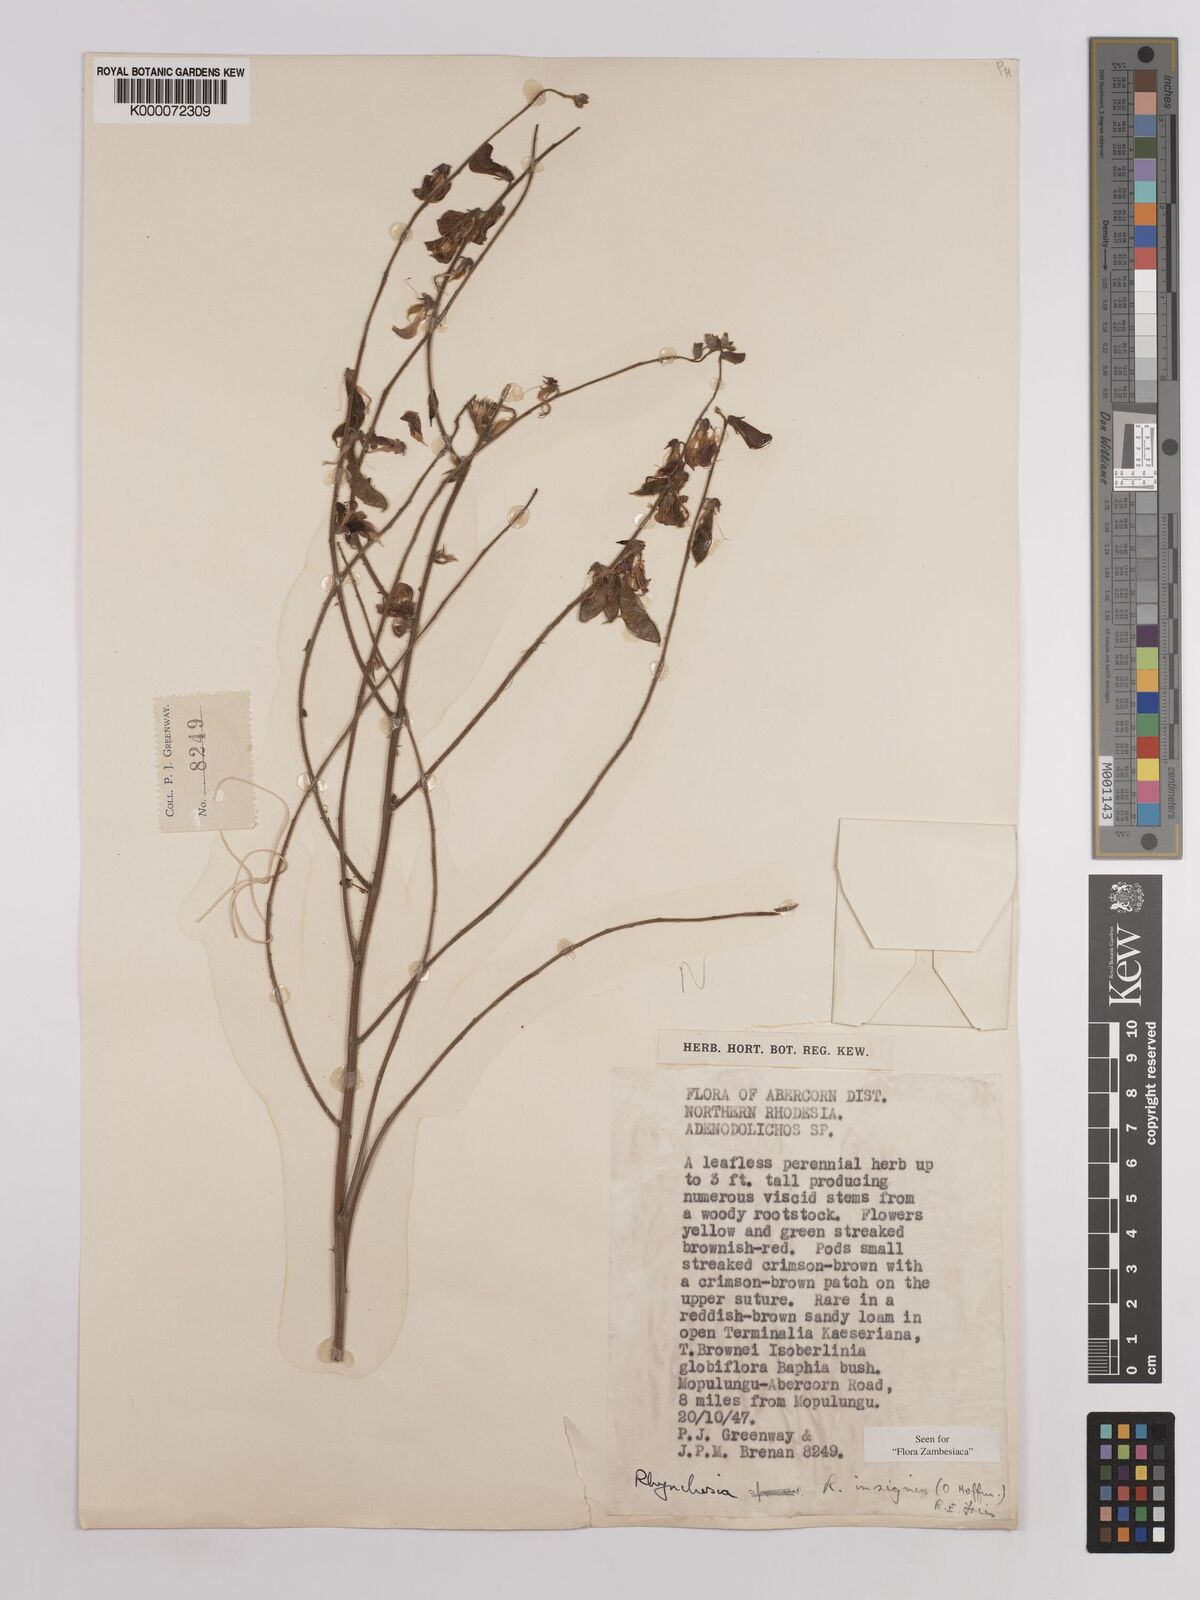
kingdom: Plantae
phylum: Tracheophyta
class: Magnoliopsida
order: Fabales
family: Fabaceae
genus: Rhynchosia
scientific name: Rhynchosia insignis
